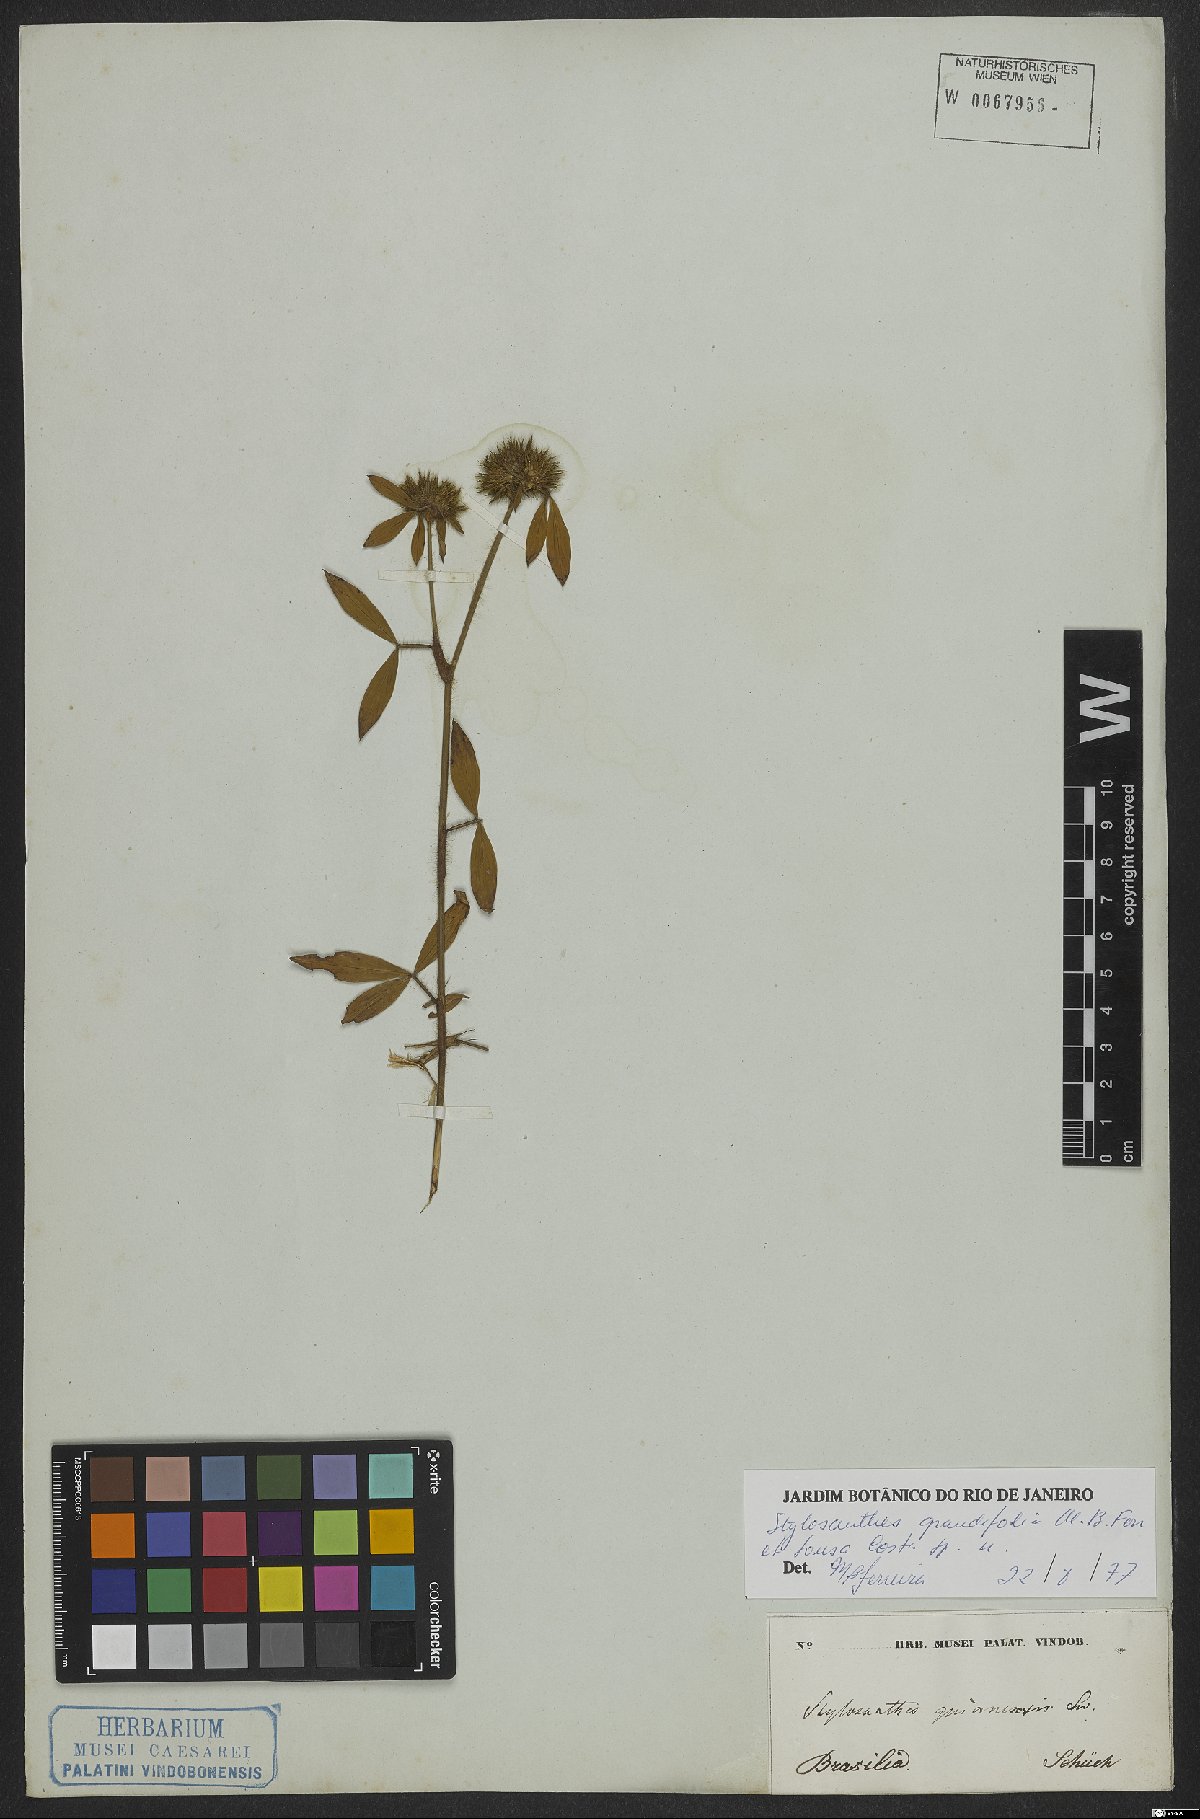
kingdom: Plantae
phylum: Tracheophyta
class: Magnoliopsida
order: Fabales
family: Fabaceae
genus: Stylosanthes
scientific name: Stylosanthes guianensis
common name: Pencil flower
